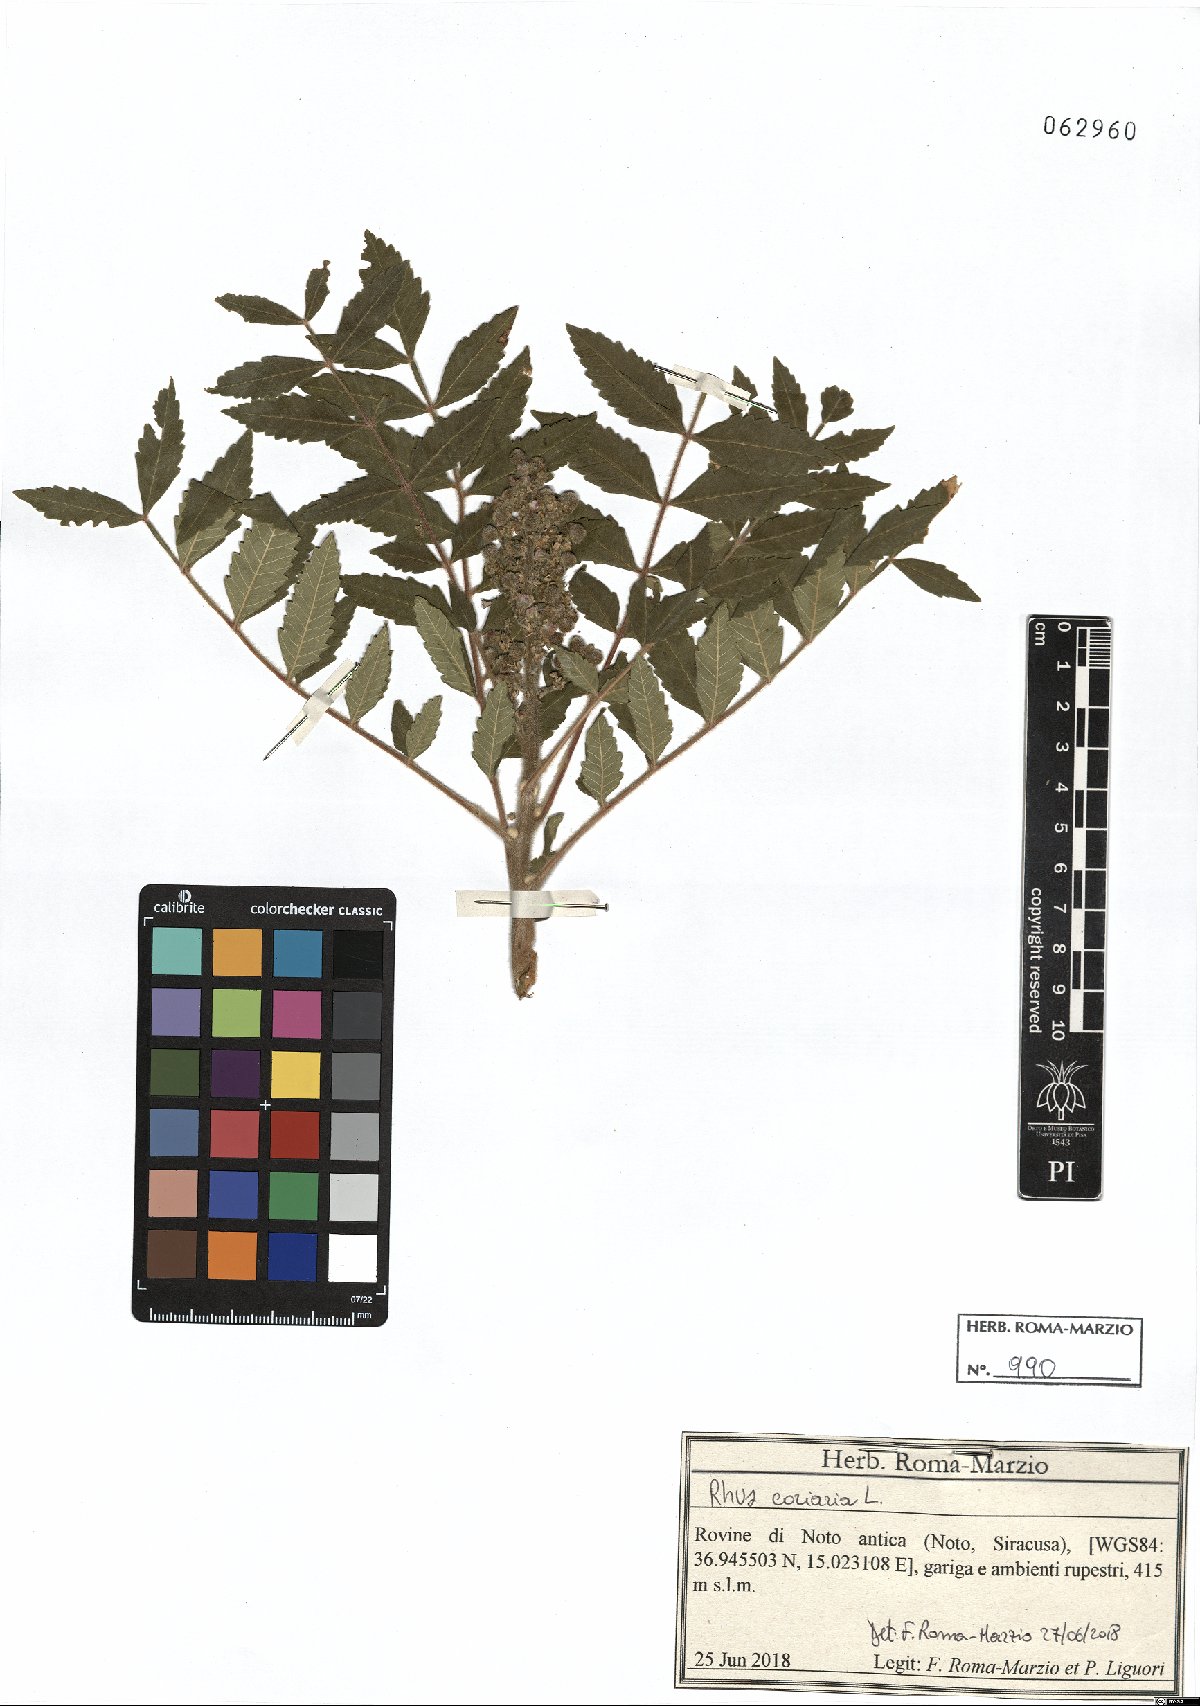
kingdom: Plantae
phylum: Tracheophyta
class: Magnoliopsida
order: Sapindales
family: Anacardiaceae
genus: Rhus
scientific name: Rhus coriaria
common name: Tanner's sumach
